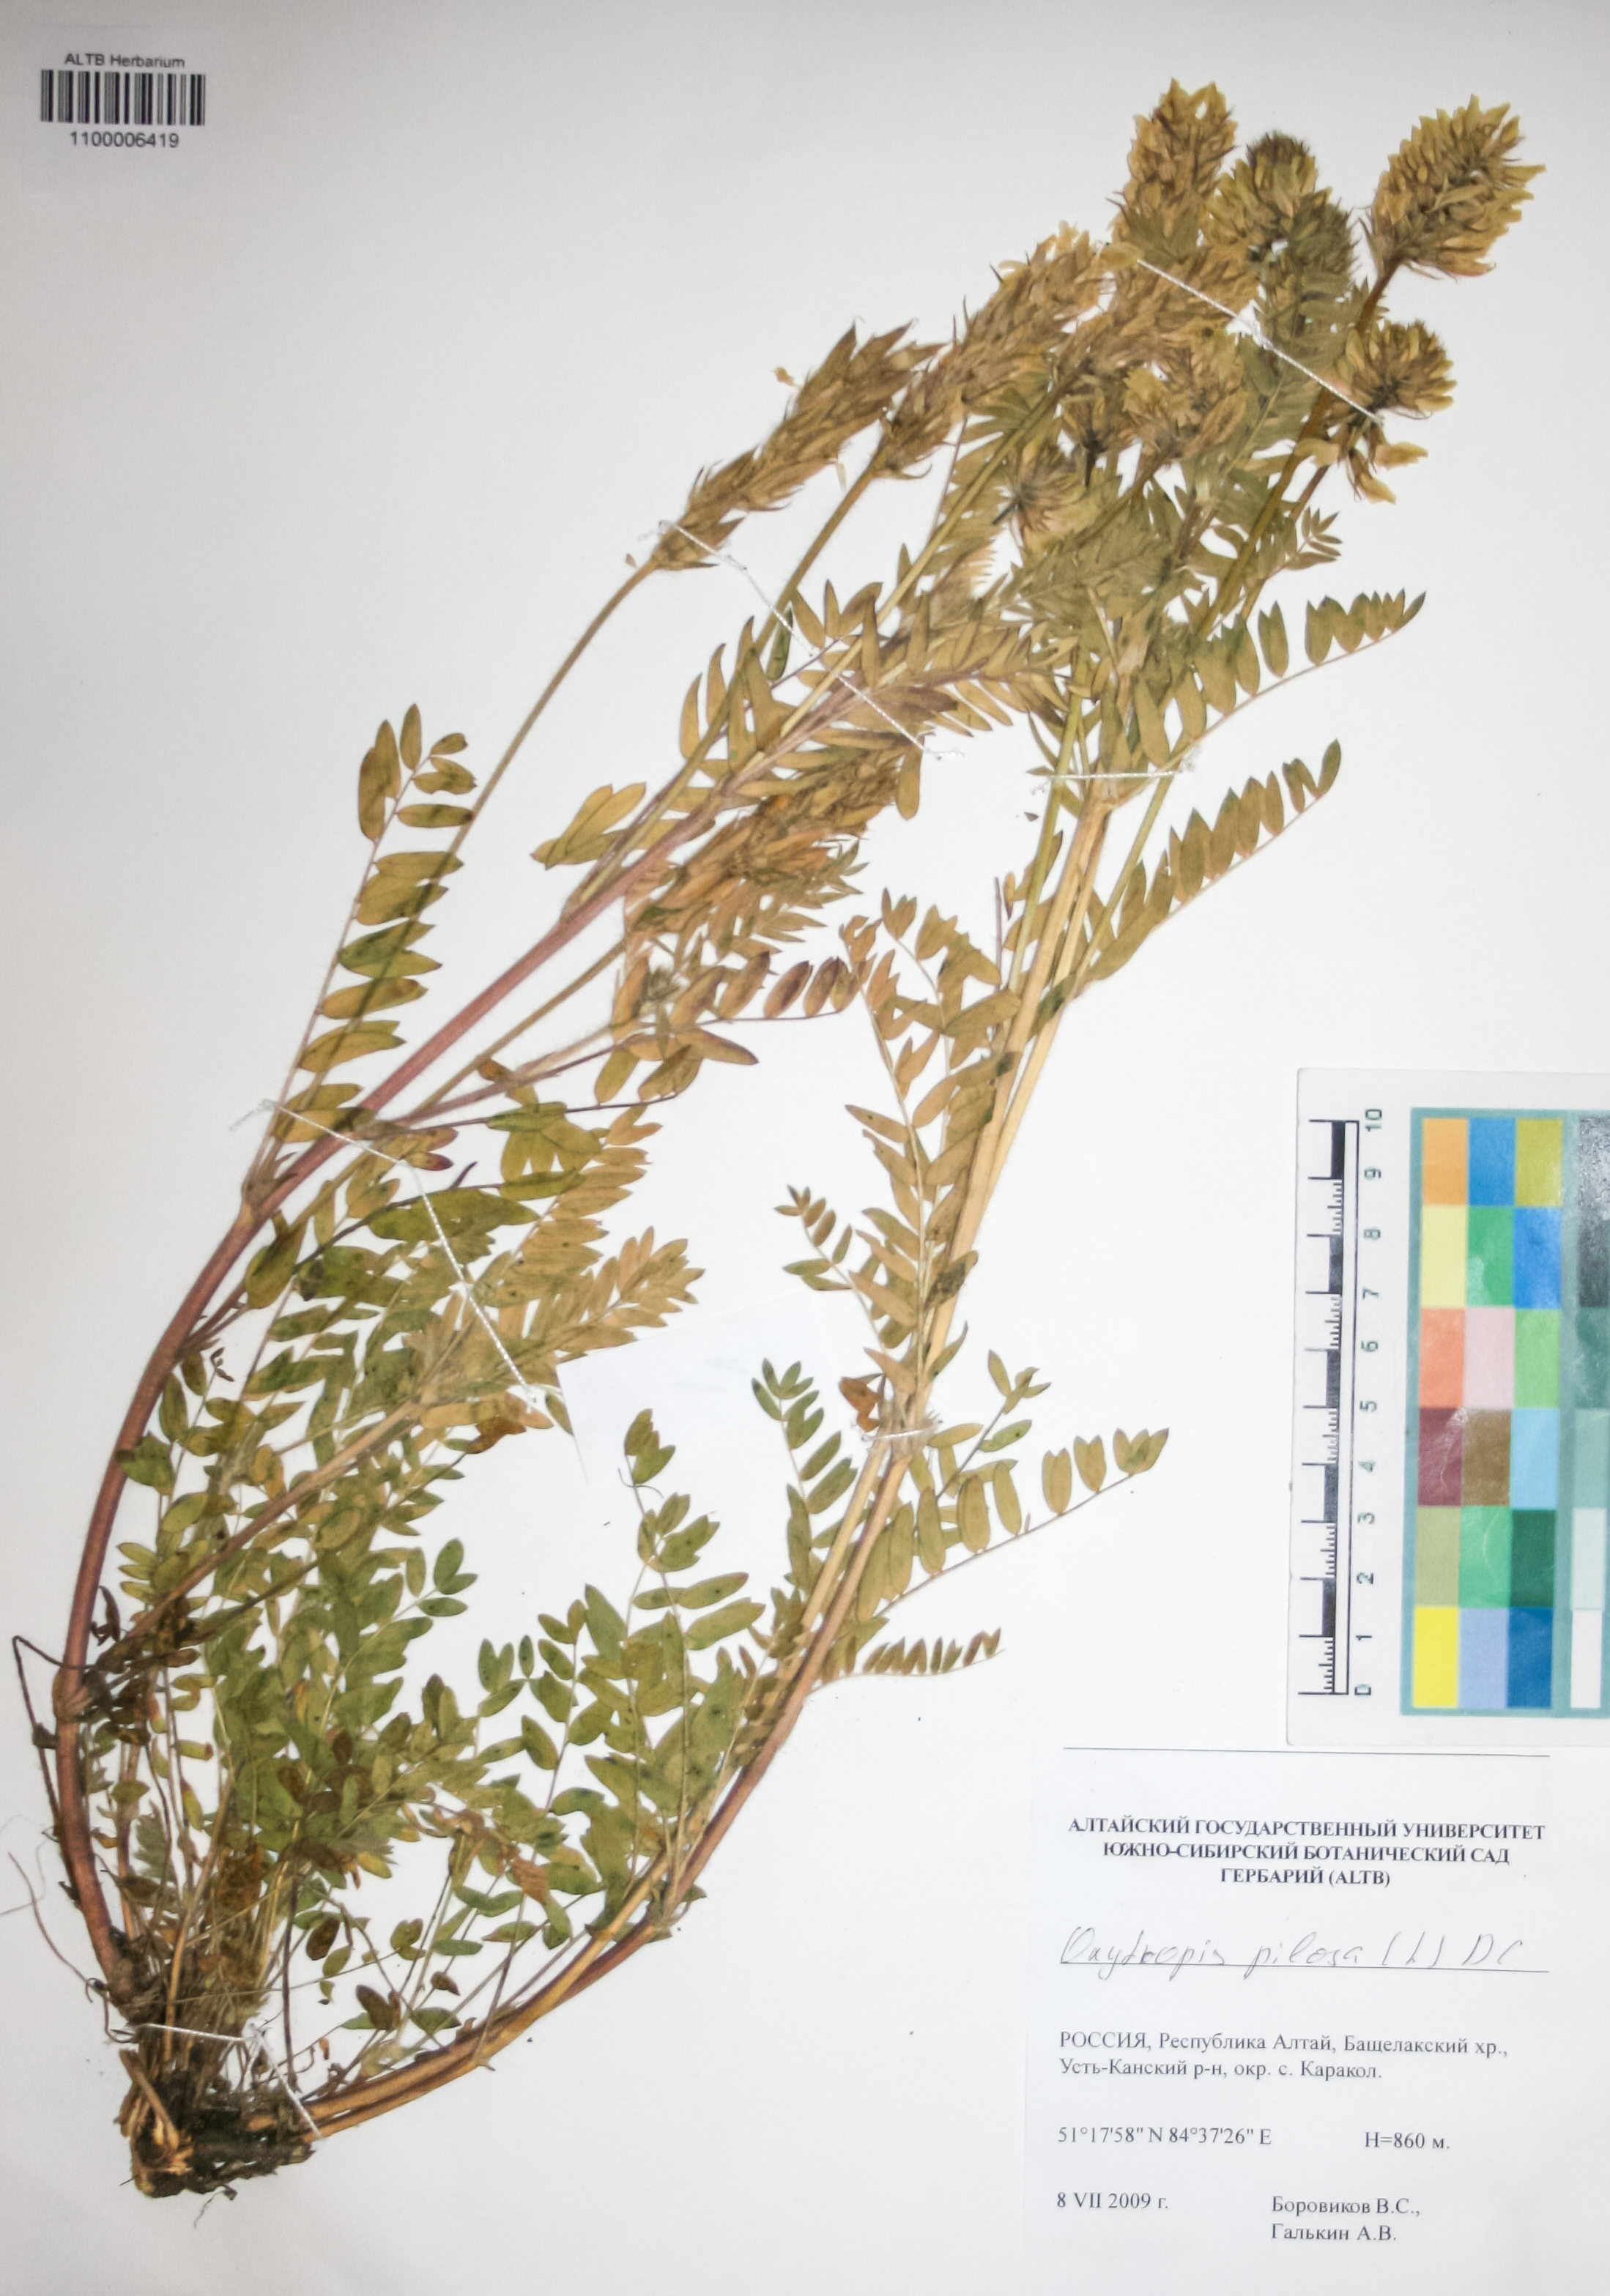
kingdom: Plantae
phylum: Tracheophyta
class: Magnoliopsida
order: Fabales
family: Fabaceae
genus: Oxytropis
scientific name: Oxytropis pilosa
